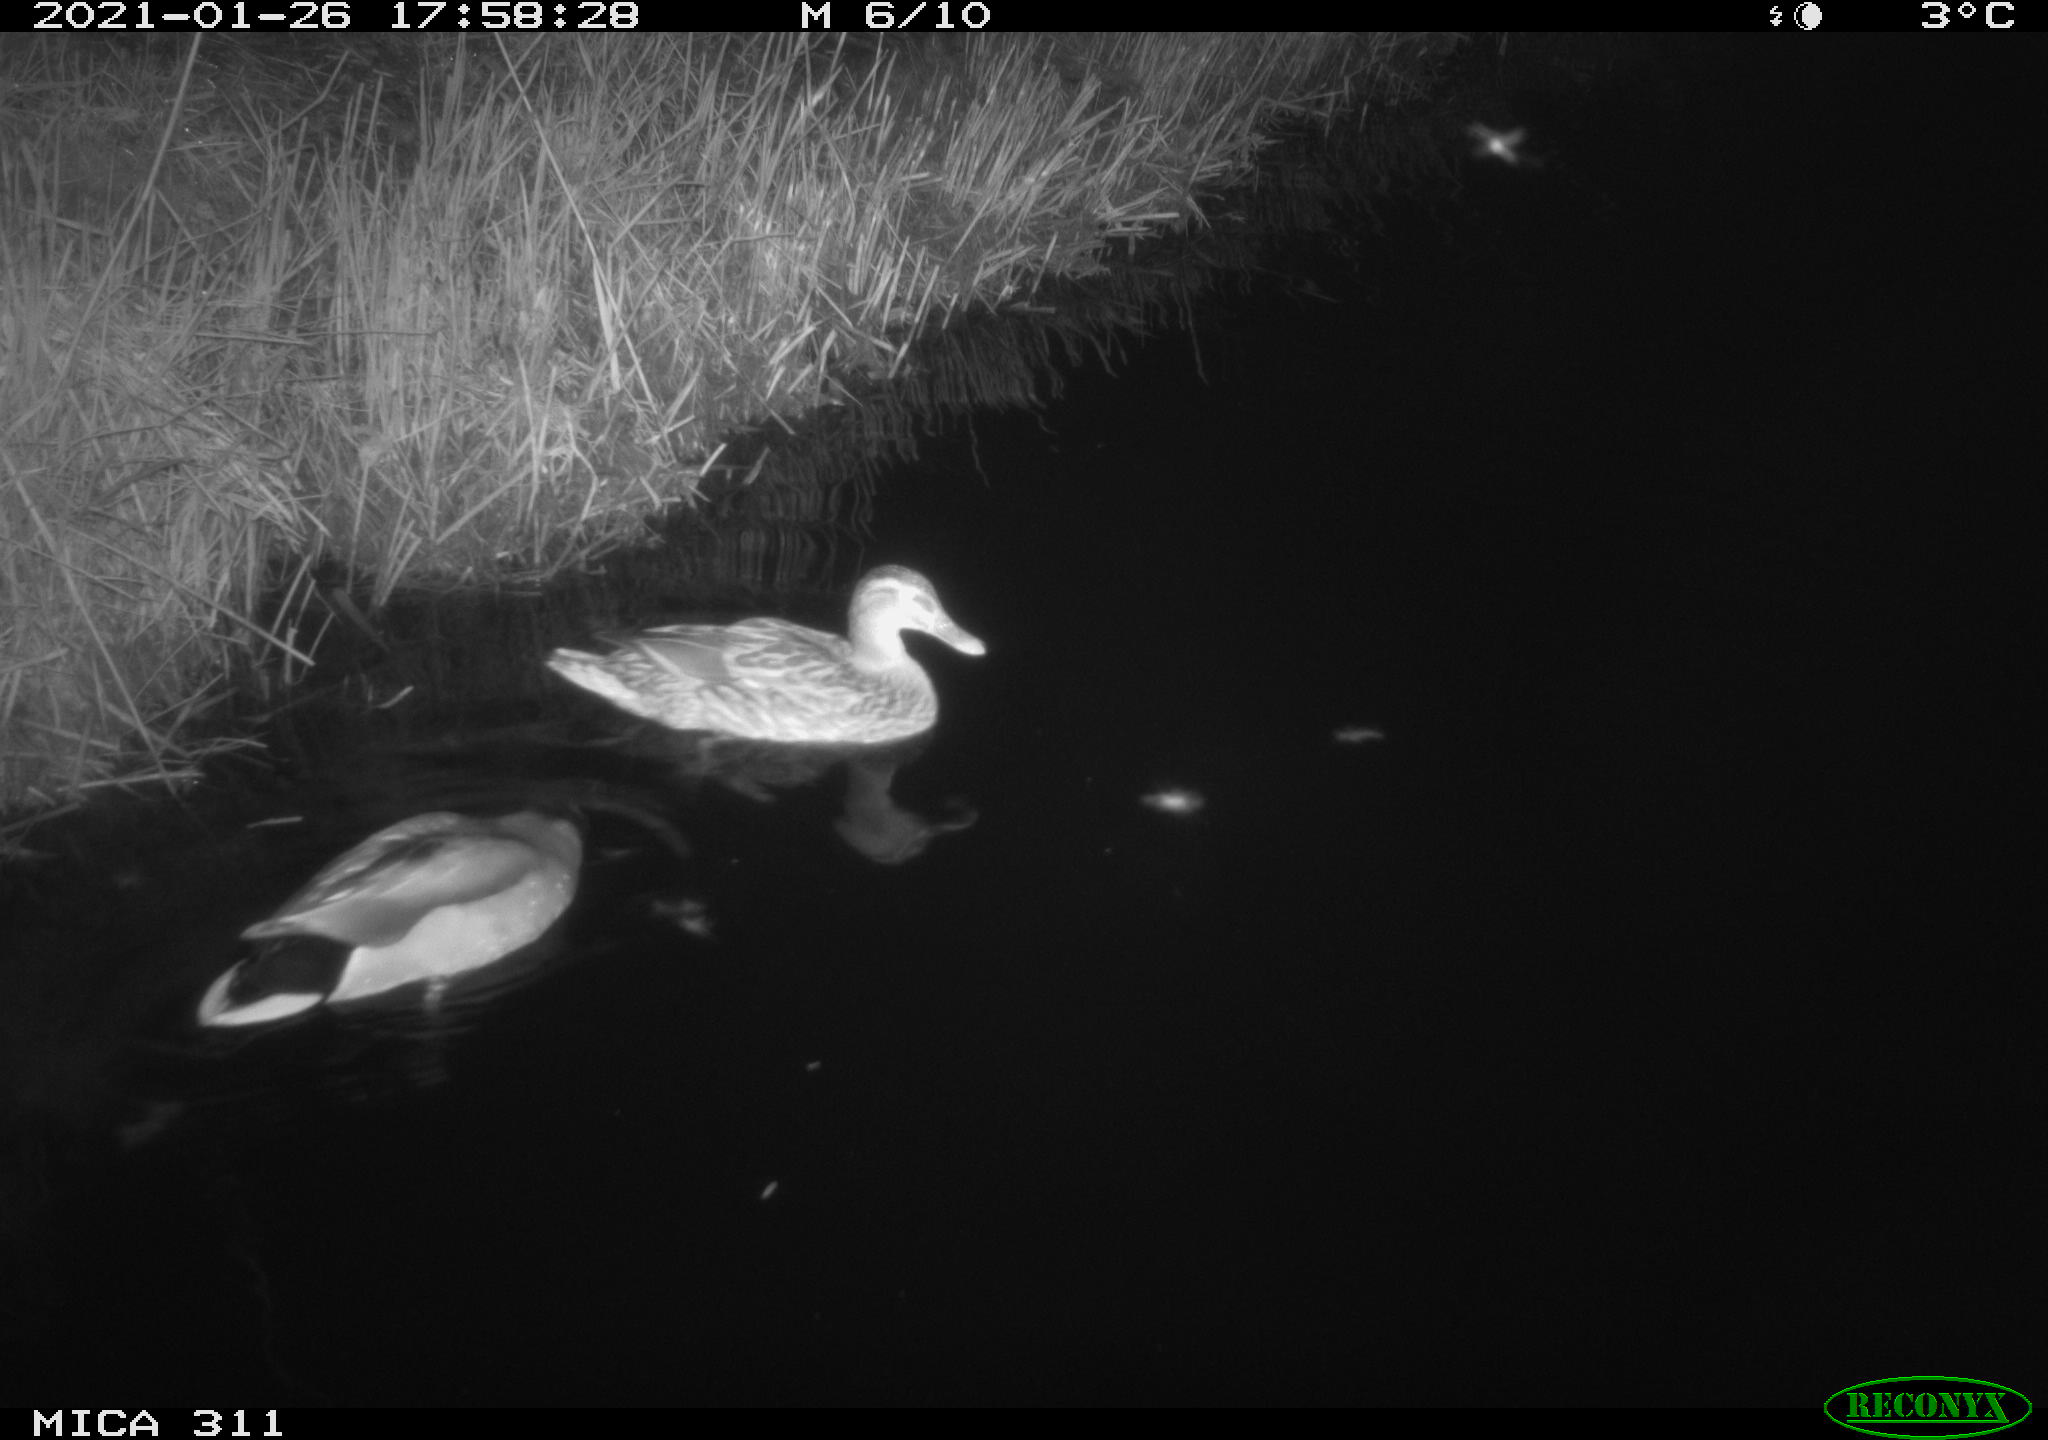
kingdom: Animalia
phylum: Chordata
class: Aves
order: Anseriformes
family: Anatidae
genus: Anas
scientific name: Anas
